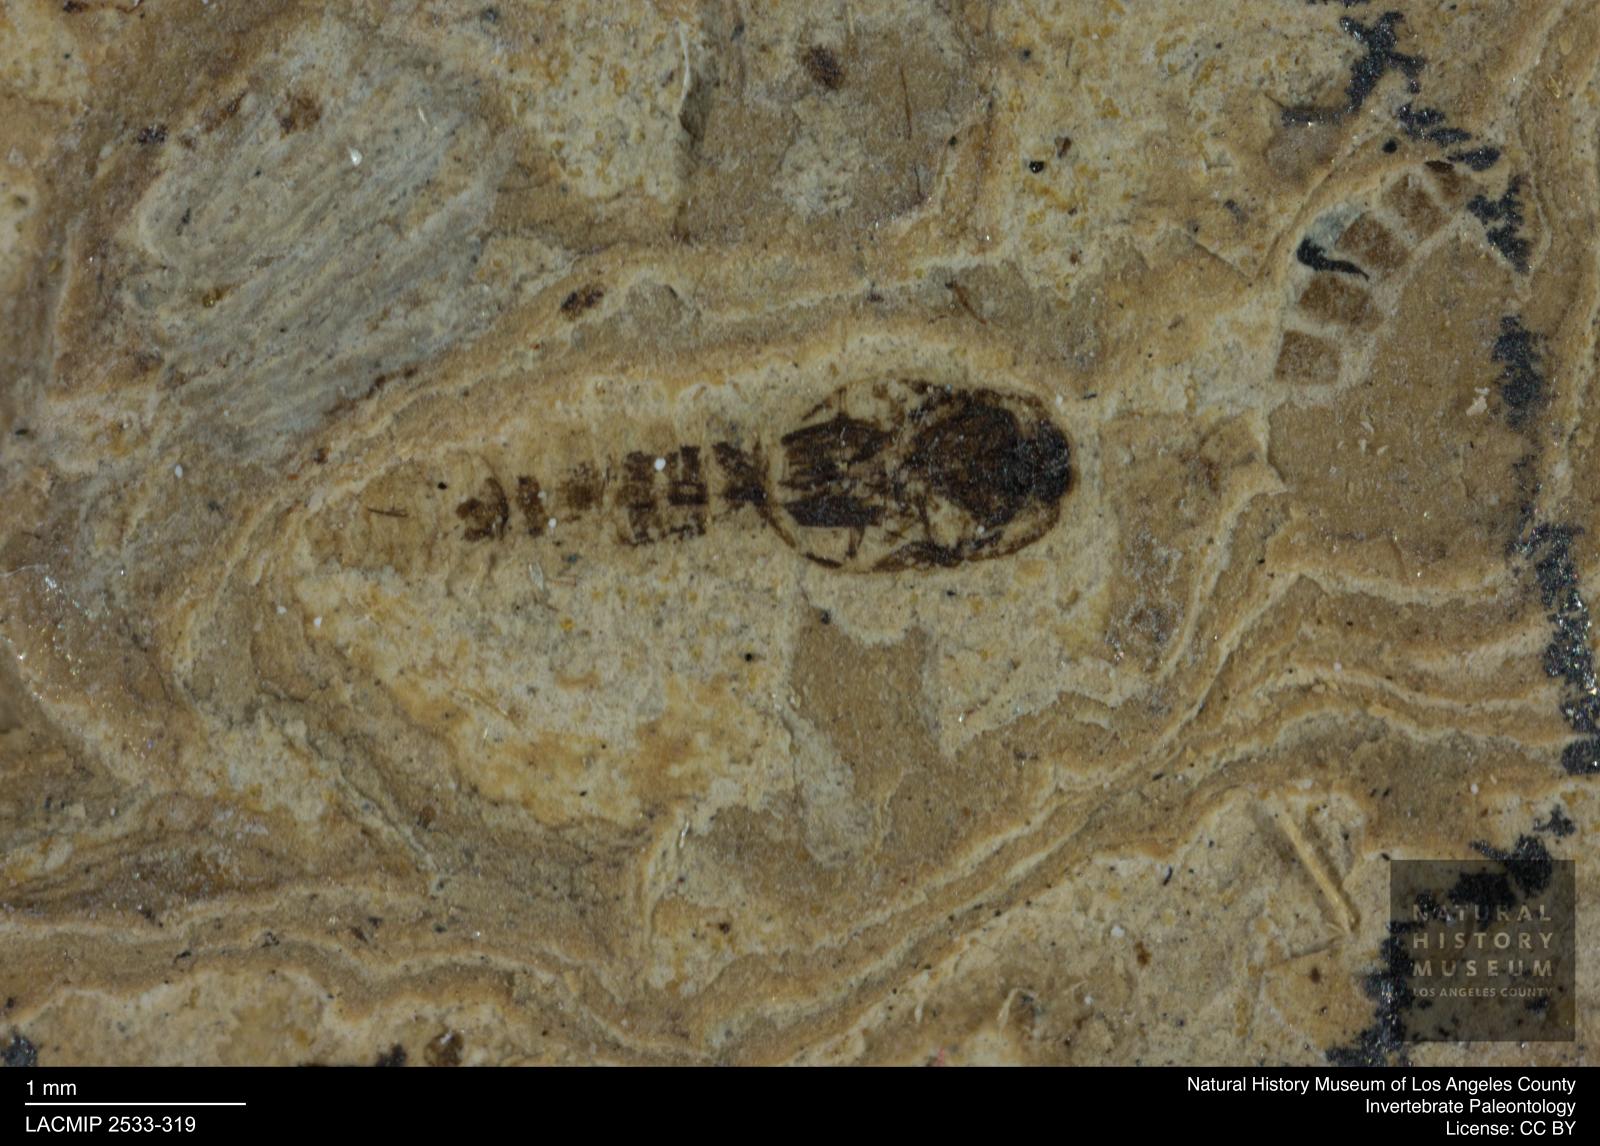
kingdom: Animalia
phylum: Arthropoda
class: Insecta
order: Diptera
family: Ceratopogonidae
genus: Ceratopogon
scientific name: Ceratopogon
